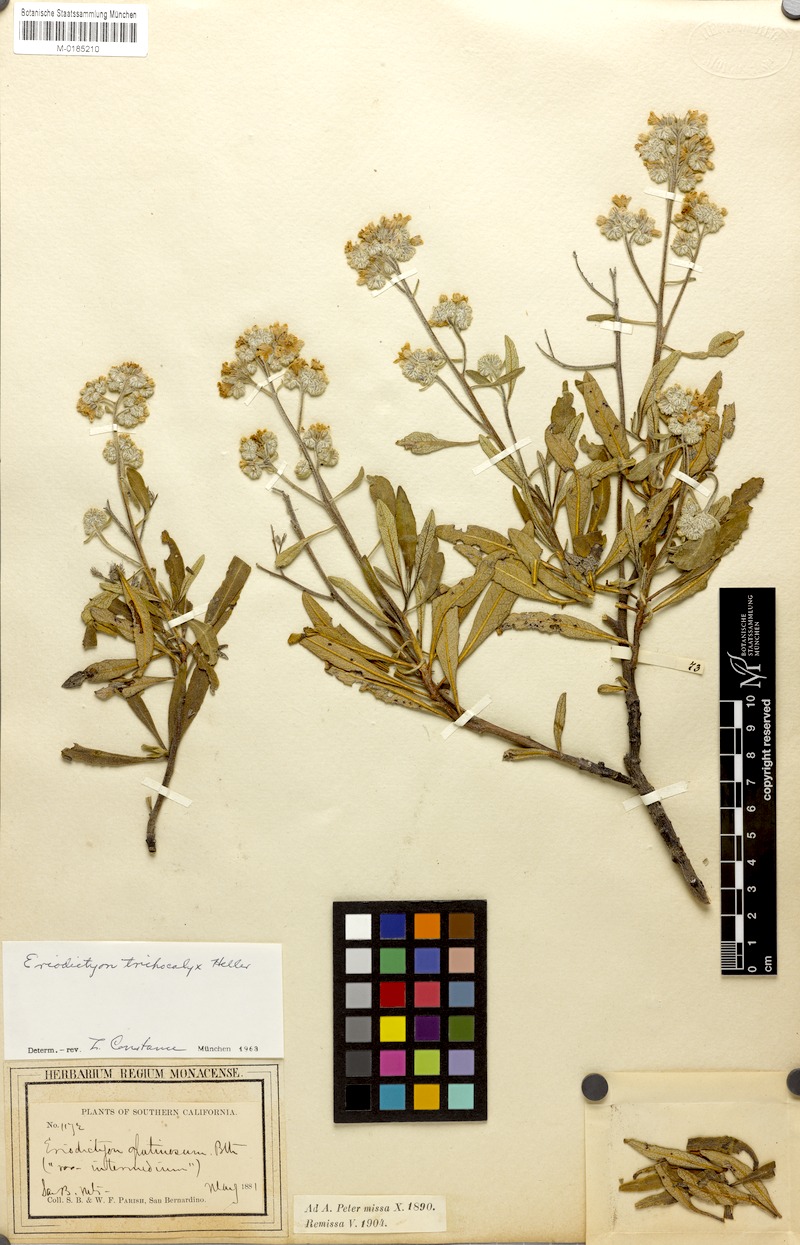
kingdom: Plantae
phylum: Tracheophyta
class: Magnoliopsida
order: Boraginales
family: Namaceae
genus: Eriodictyon
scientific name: Eriodictyon trichocalyx
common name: Hairy yerba-santa
